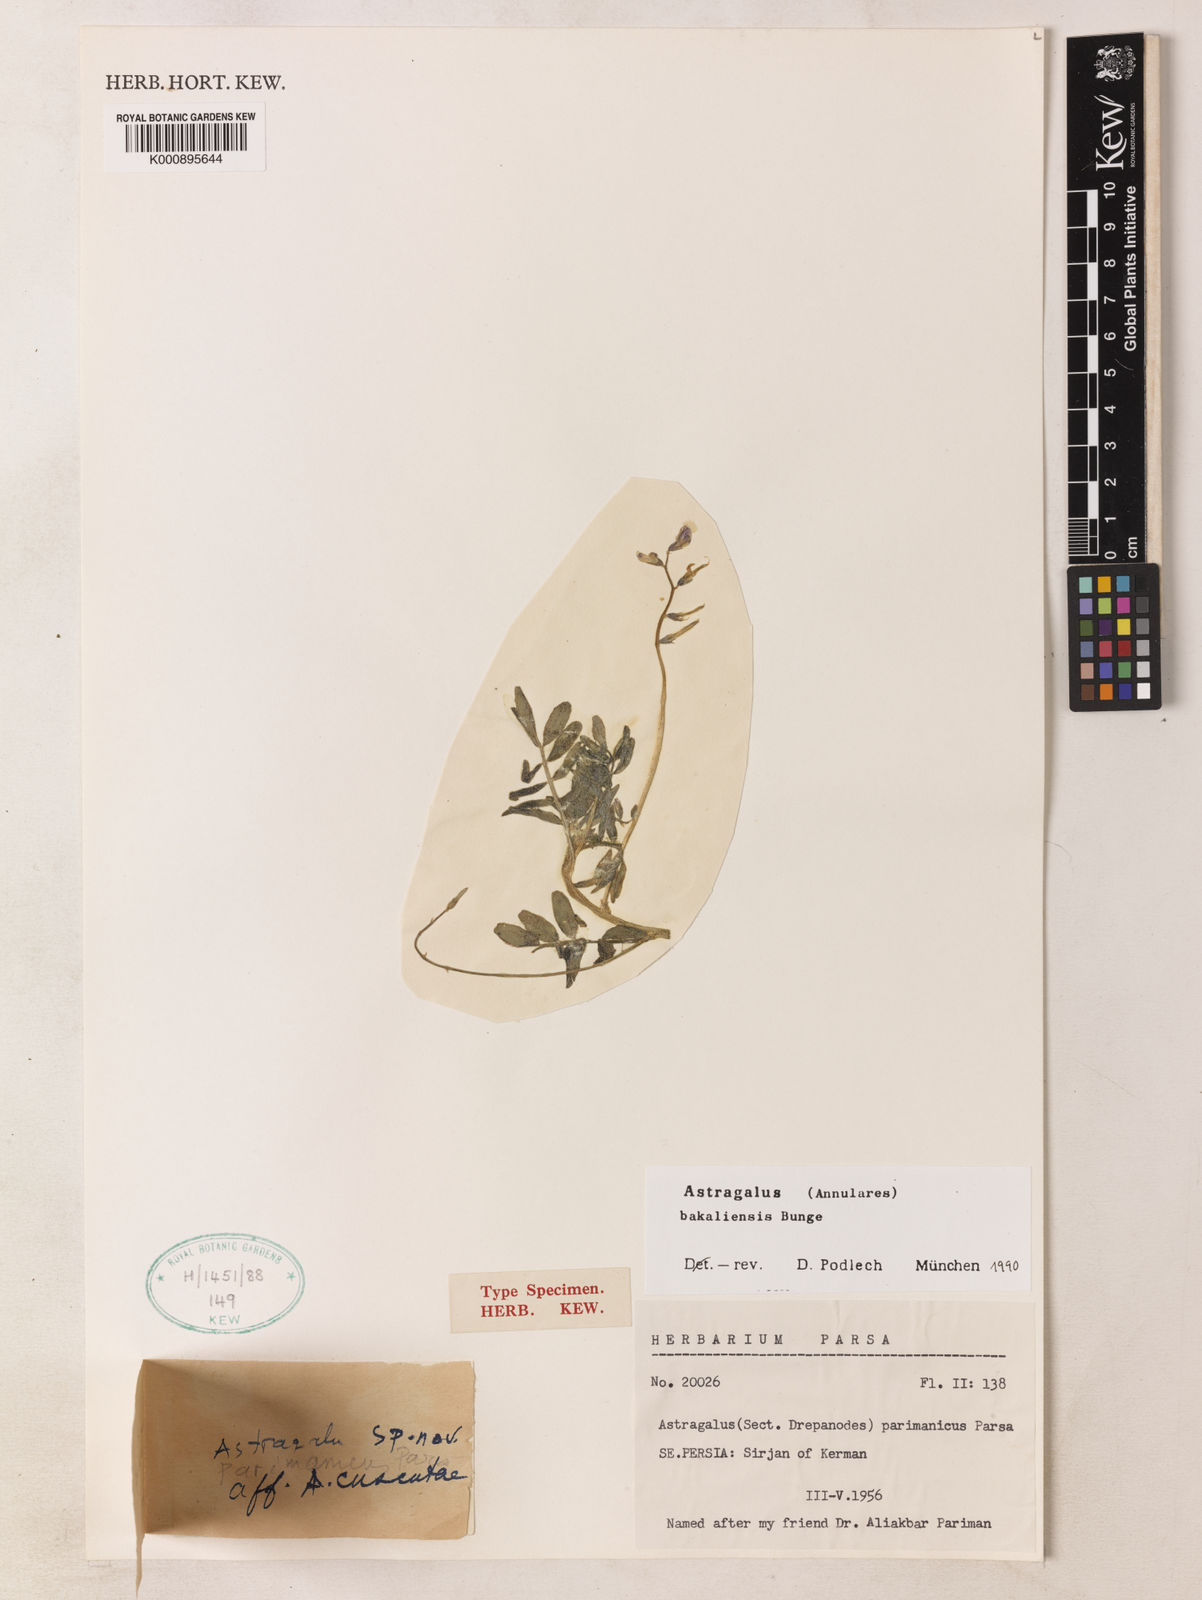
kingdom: Plantae
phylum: Tracheophyta
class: Magnoliopsida
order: Fabales
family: Fabaceae
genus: Astragalus
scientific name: Astragalus bakaliensis
